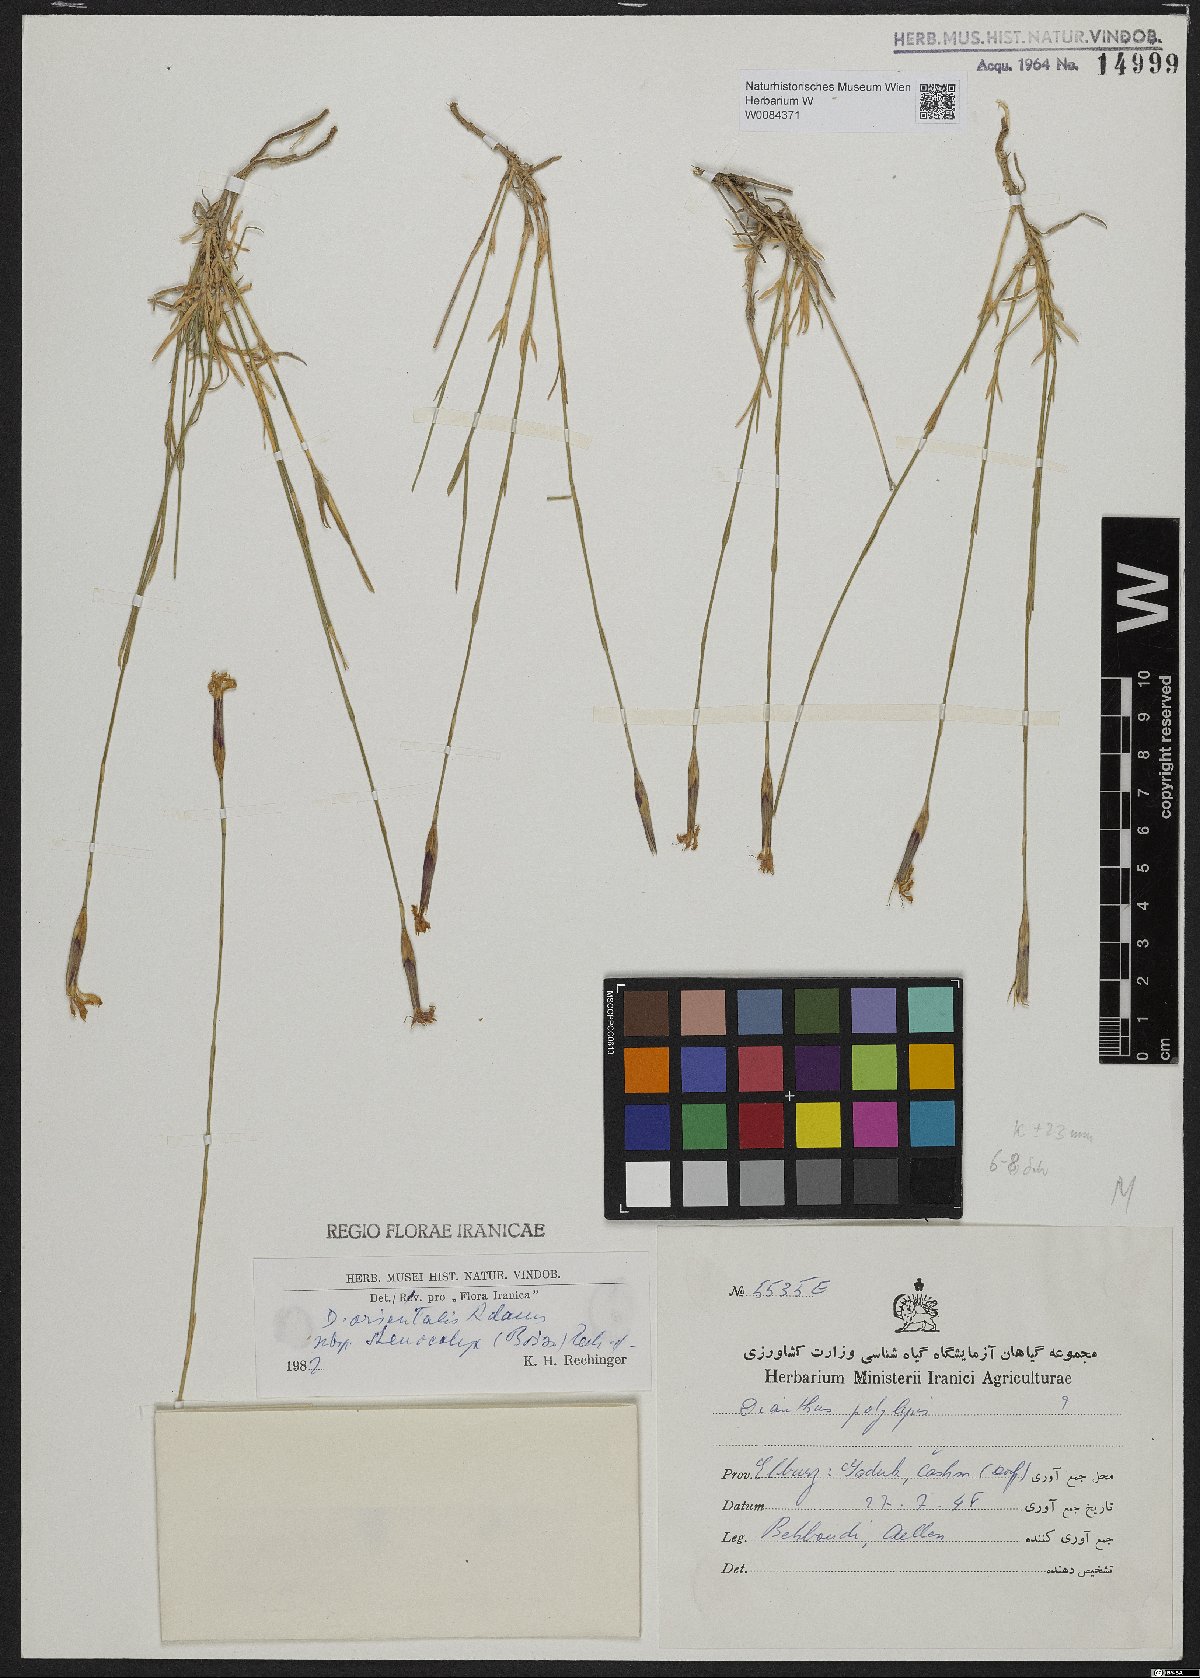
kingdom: Plantae
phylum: Tracheophyta
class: Magnoliopsida
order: Caryophyllales
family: Caryophyllaceae
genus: Dianthus
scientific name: Dianthus orientalis
